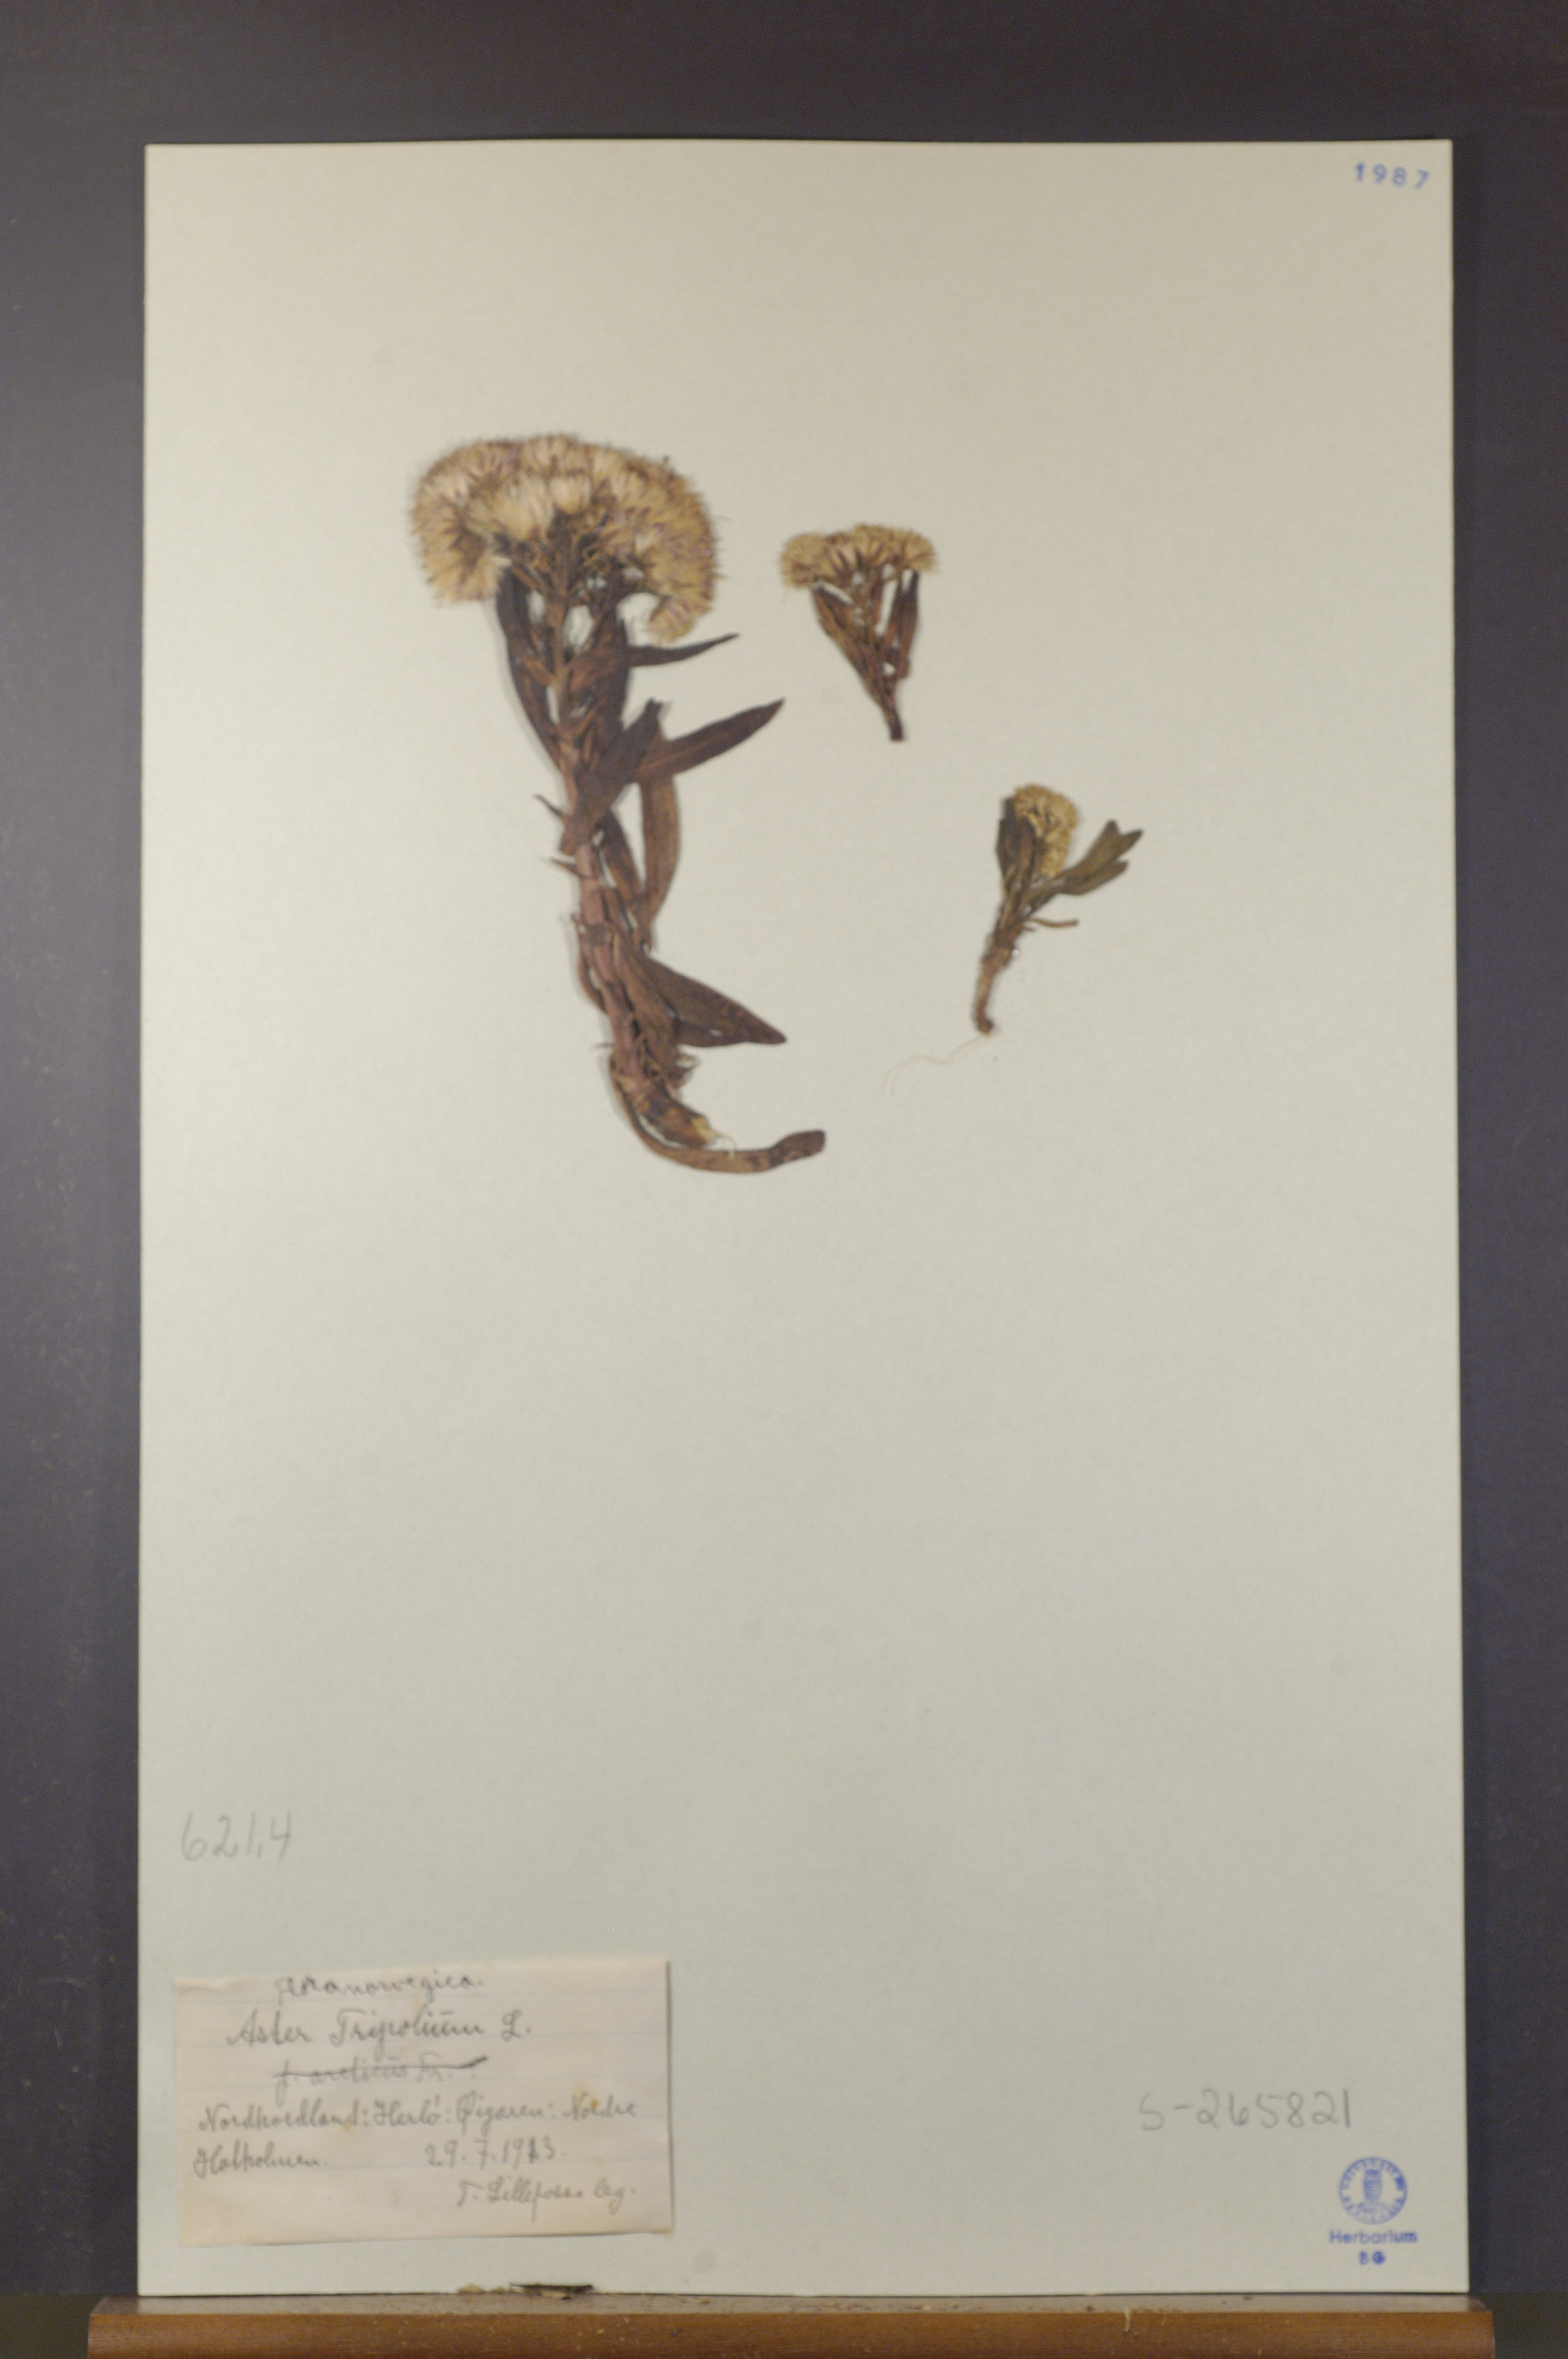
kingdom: Plantae
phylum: Tracheophyta
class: Magnoliopsida
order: Asterales
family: Asteraceae
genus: Tripolium
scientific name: Tripolium pannonicum
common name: Sea aster
